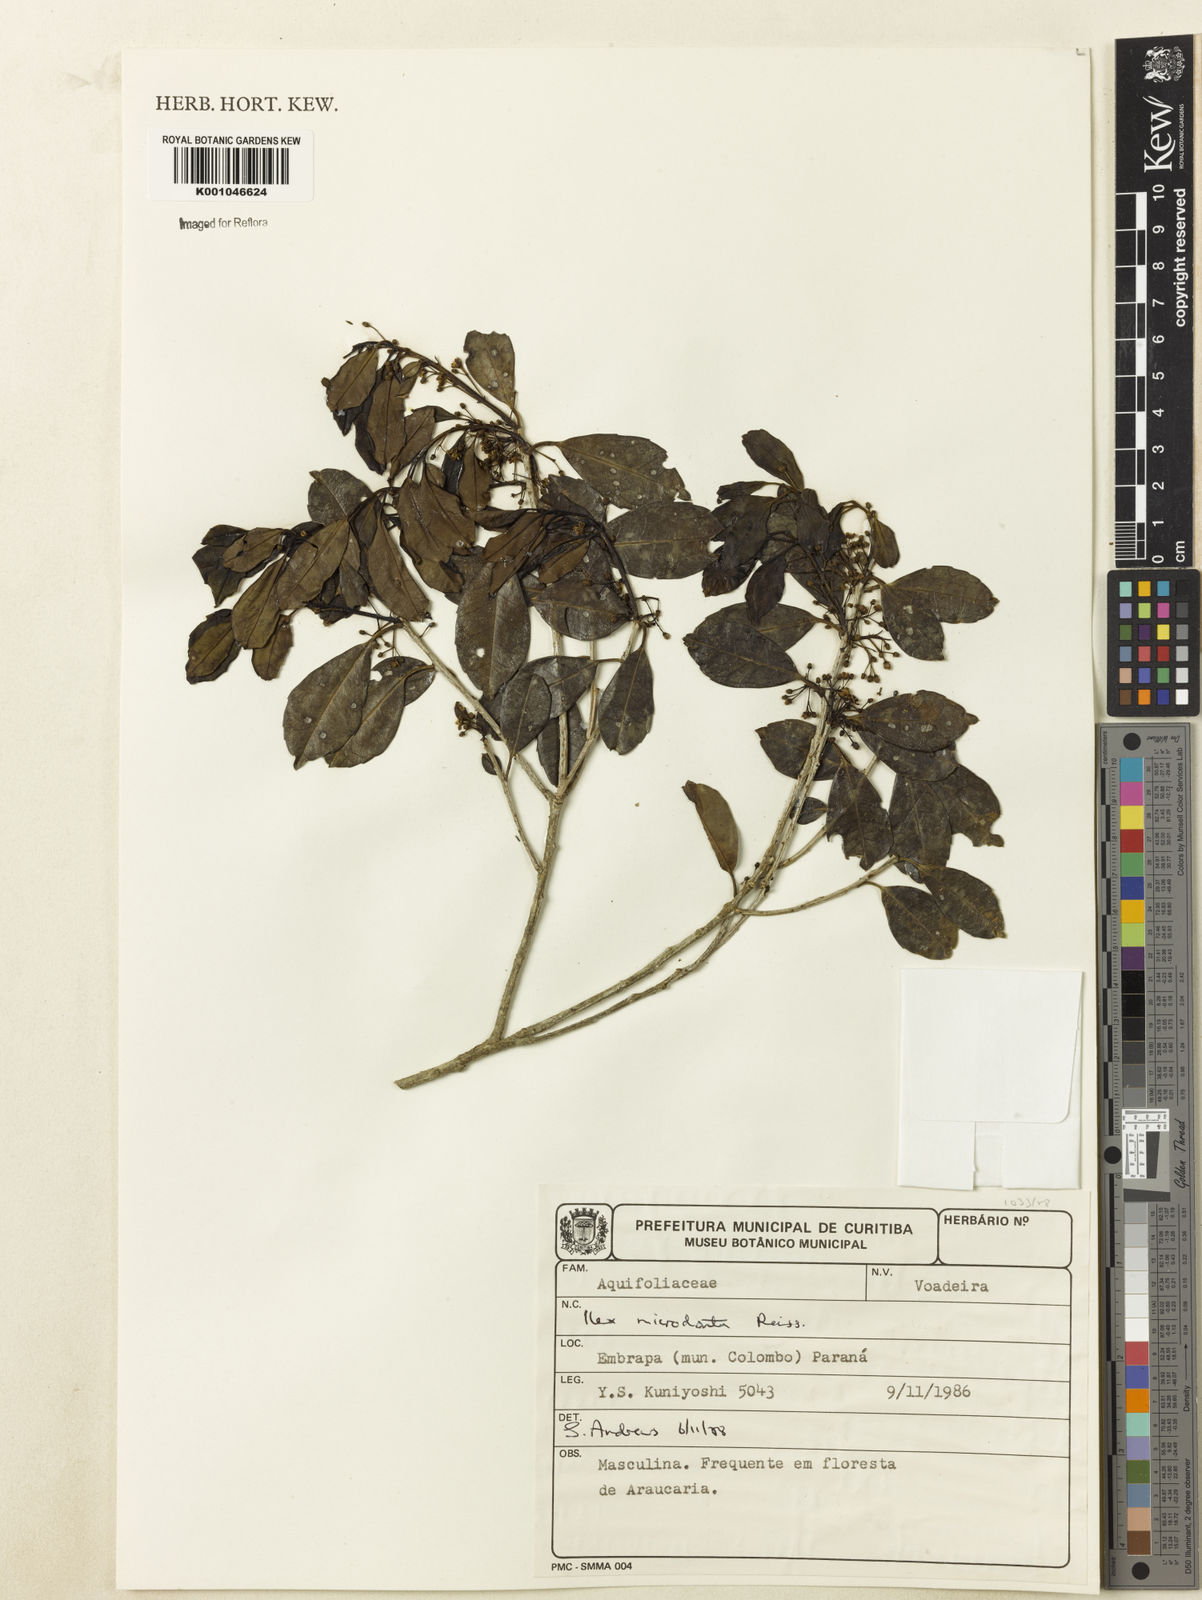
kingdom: Plantae
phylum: Tracheophyta
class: Magnoliopsida
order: Aquifoliales
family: Aquifoliaceae
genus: Ilex
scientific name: Ilex microdonta
